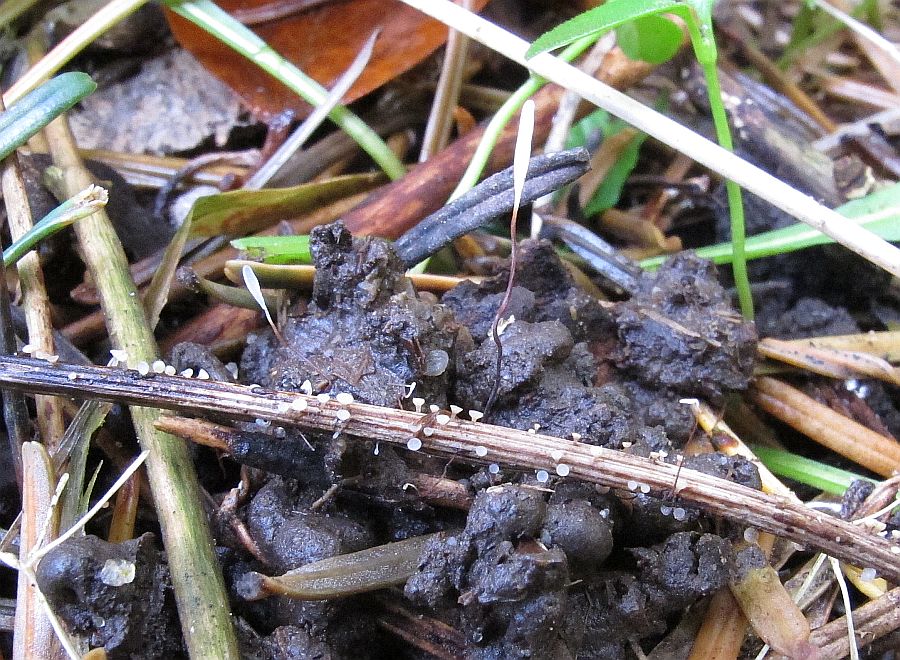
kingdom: Fungi
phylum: Basidiomycota
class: Agaricomycetes
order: Agaricales
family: Typhulaceae
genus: Typhula
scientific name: Typhula erythropus
